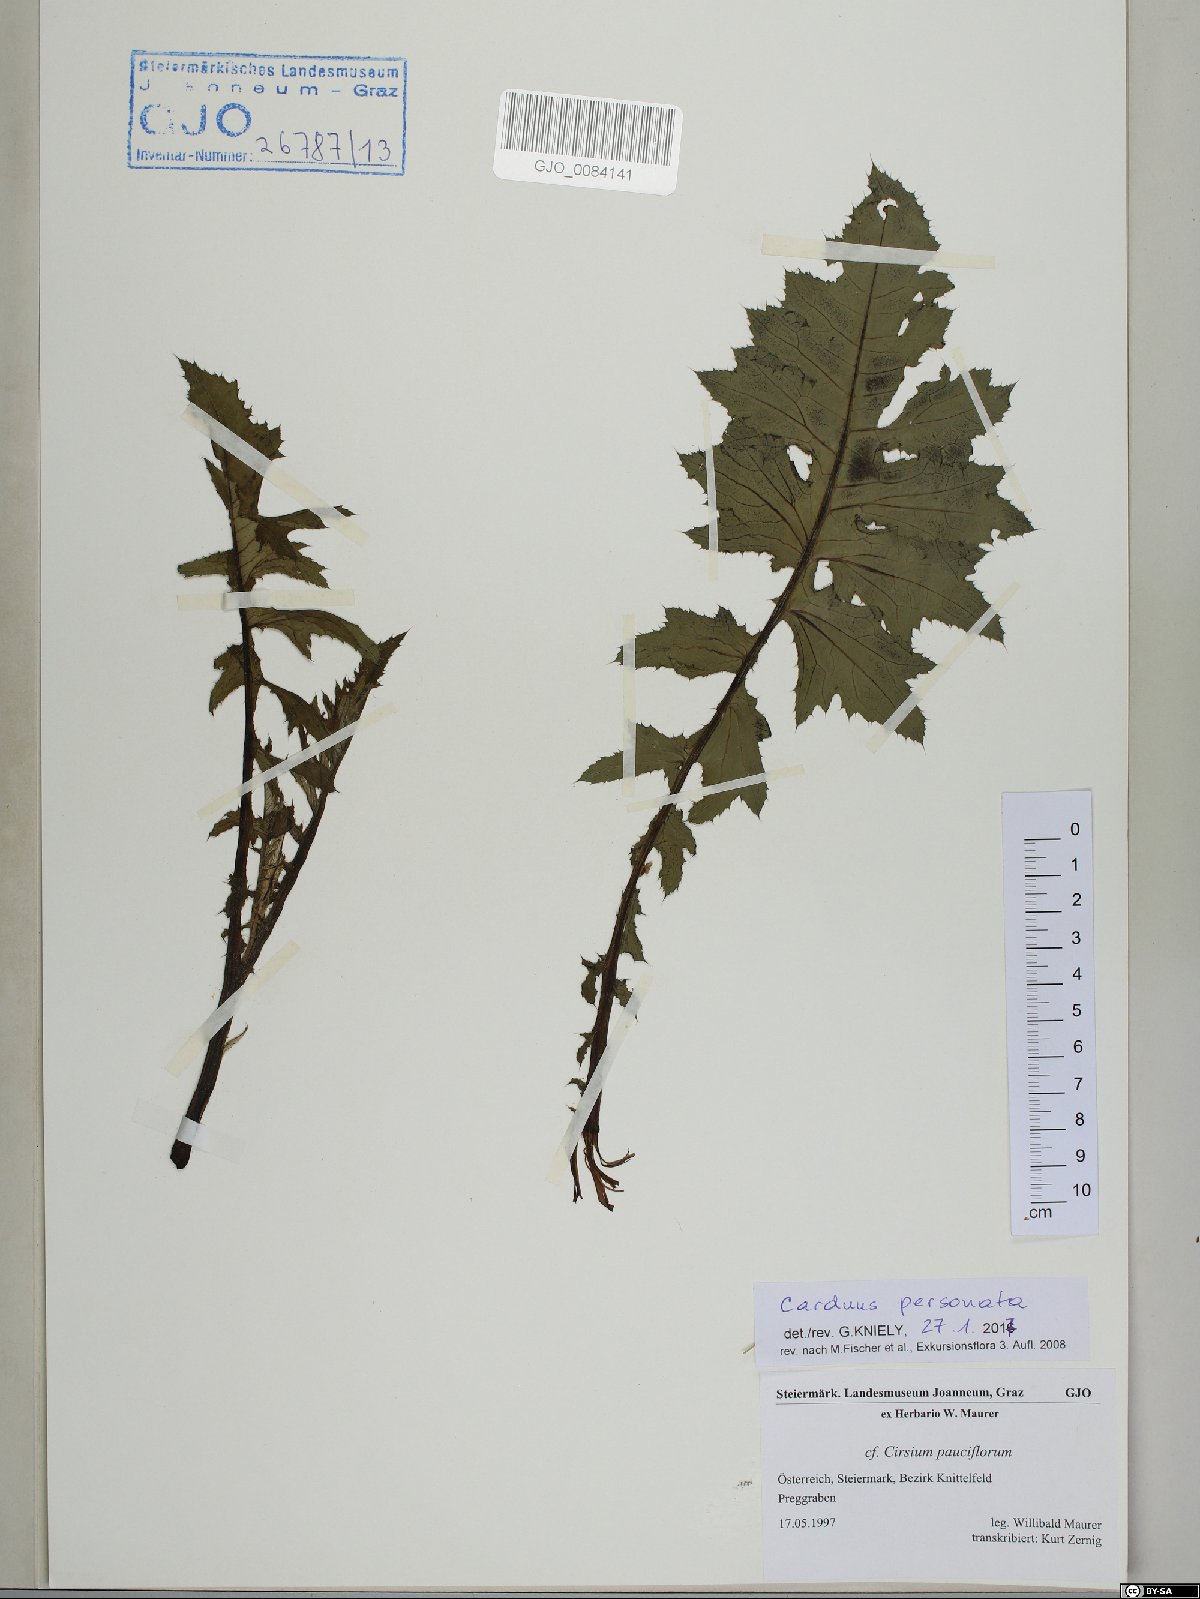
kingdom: Plantae
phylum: Tracheophyta
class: Magnoliopsida
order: Asterales
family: Asteraceae
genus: Carduus
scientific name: Carduus personata
